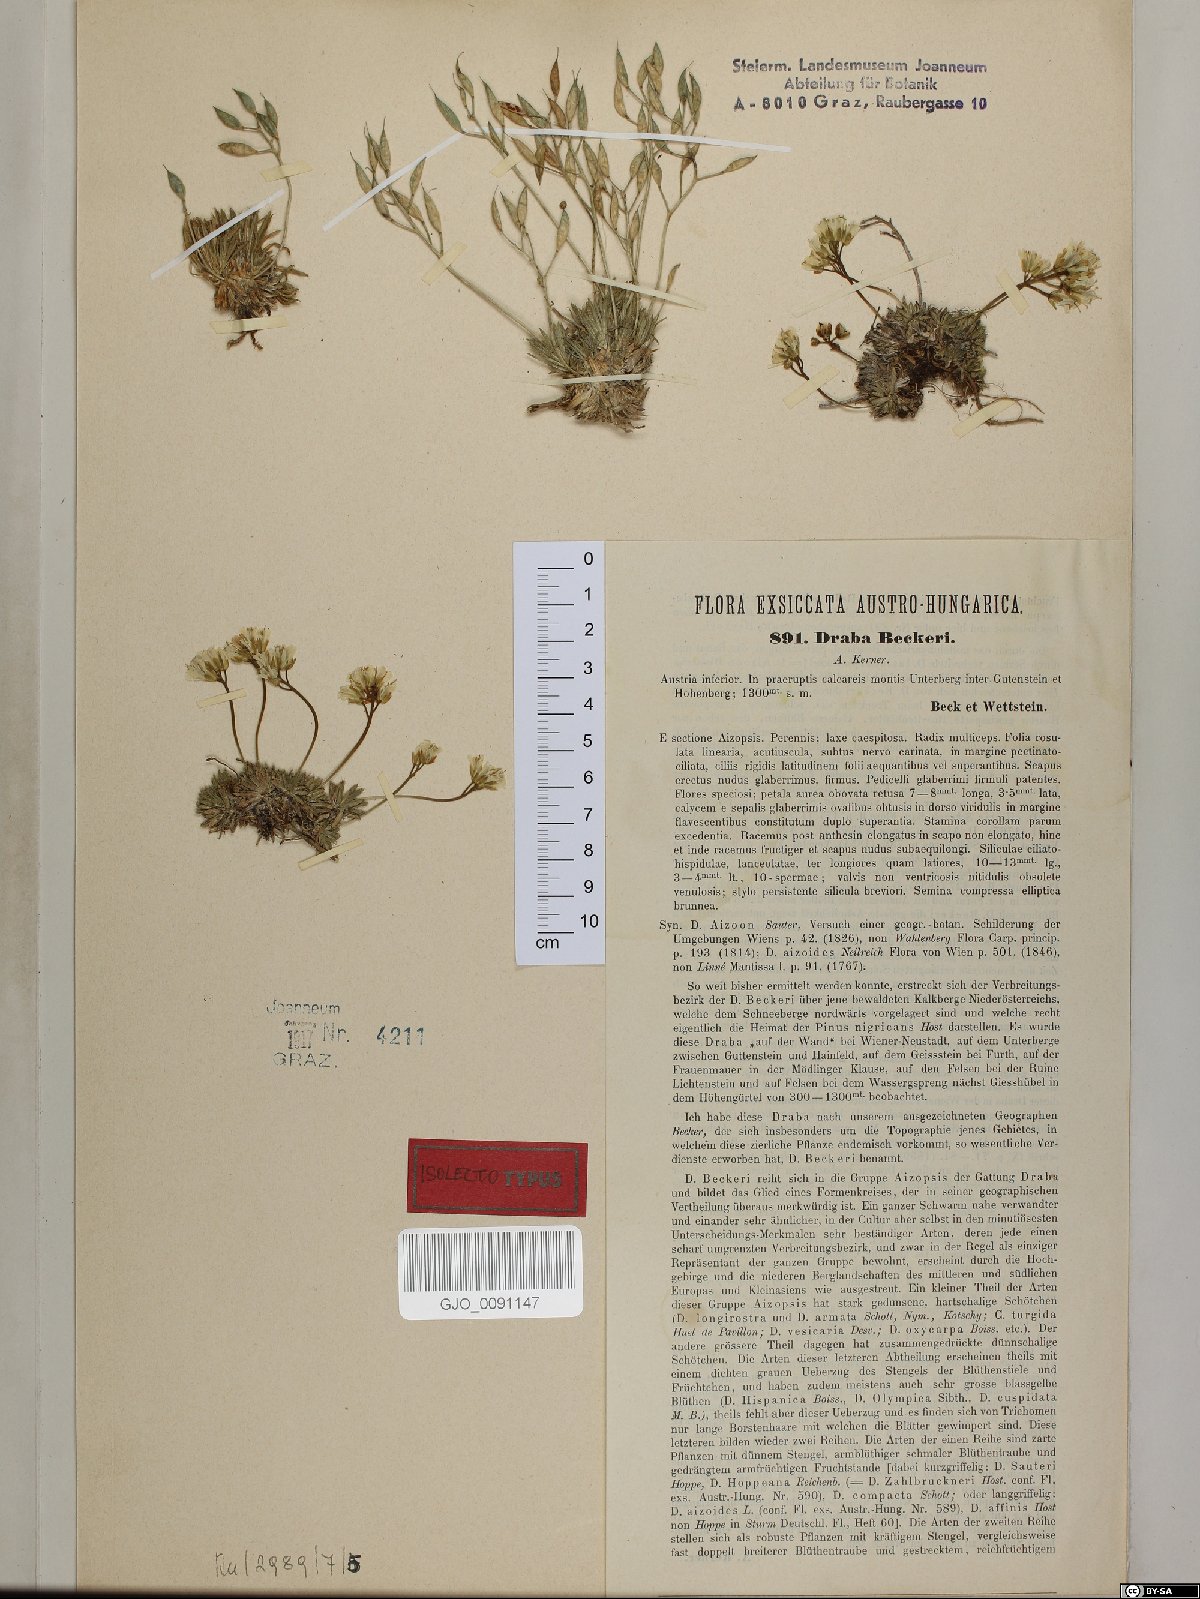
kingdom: Plantae
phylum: Tracheophyta
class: Magnoliopsida
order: Brassicales
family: Brassicaceae
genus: Draba
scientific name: Draba aizoides
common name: Yellow whitlowgrass
